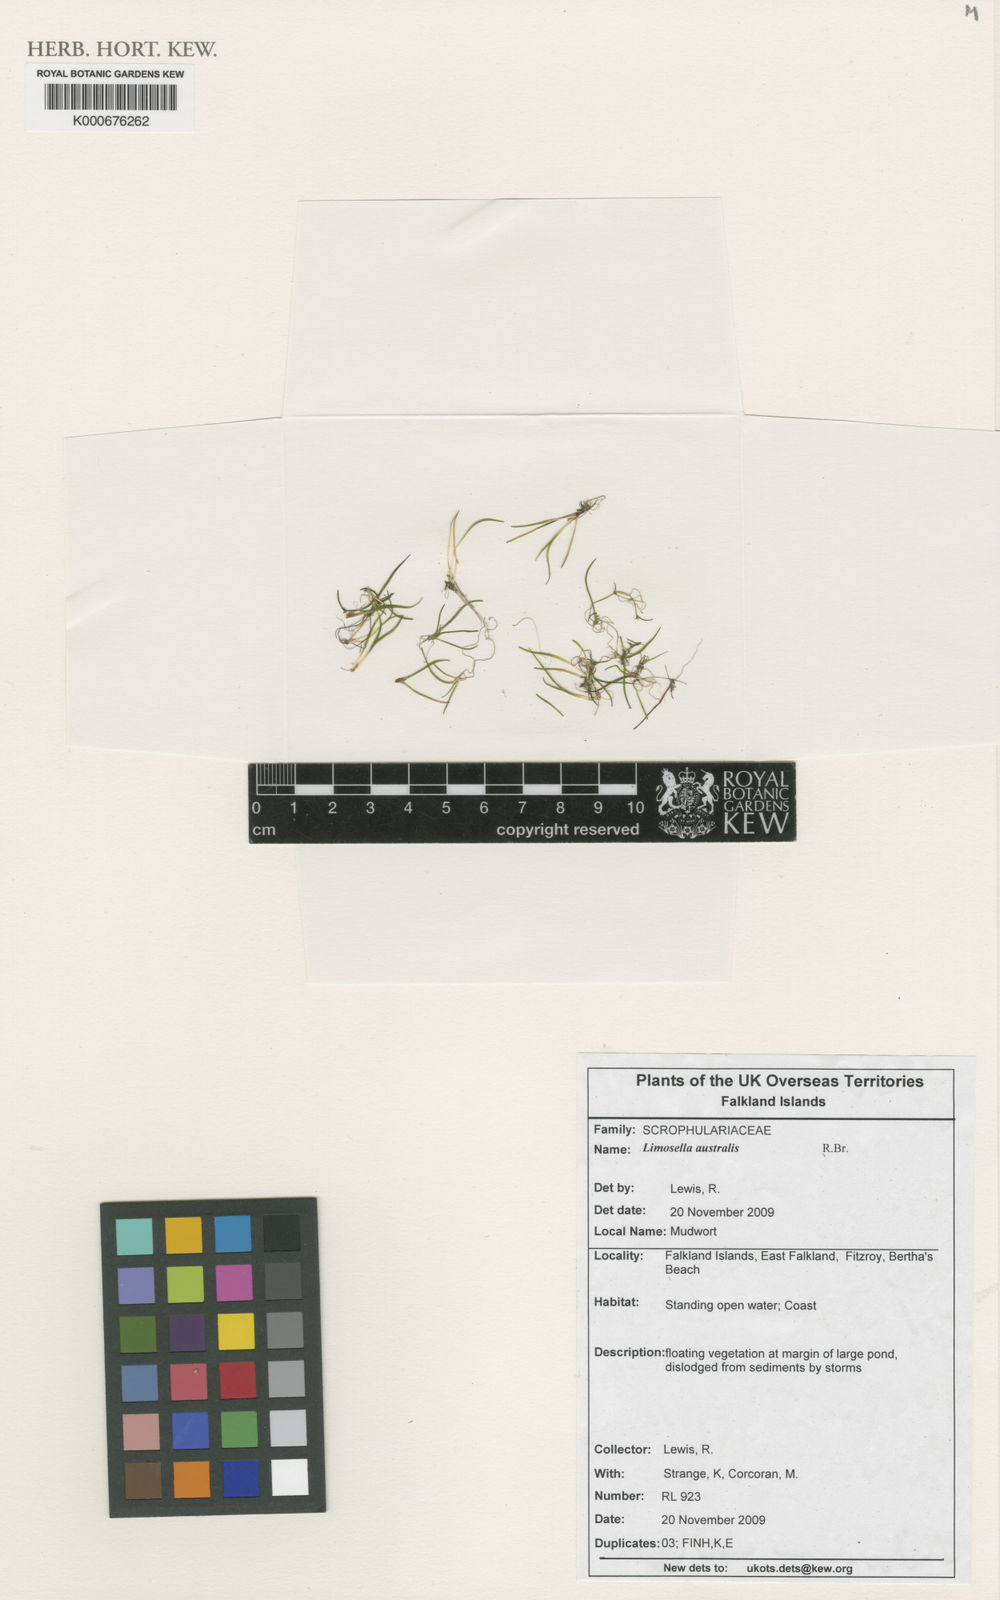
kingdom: Plantae
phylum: Tracheophyta
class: Magnoliopsida
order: Lamiales
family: Scrophulariaceae
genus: Limosella
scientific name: Limosella aquatica
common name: Mudwort
